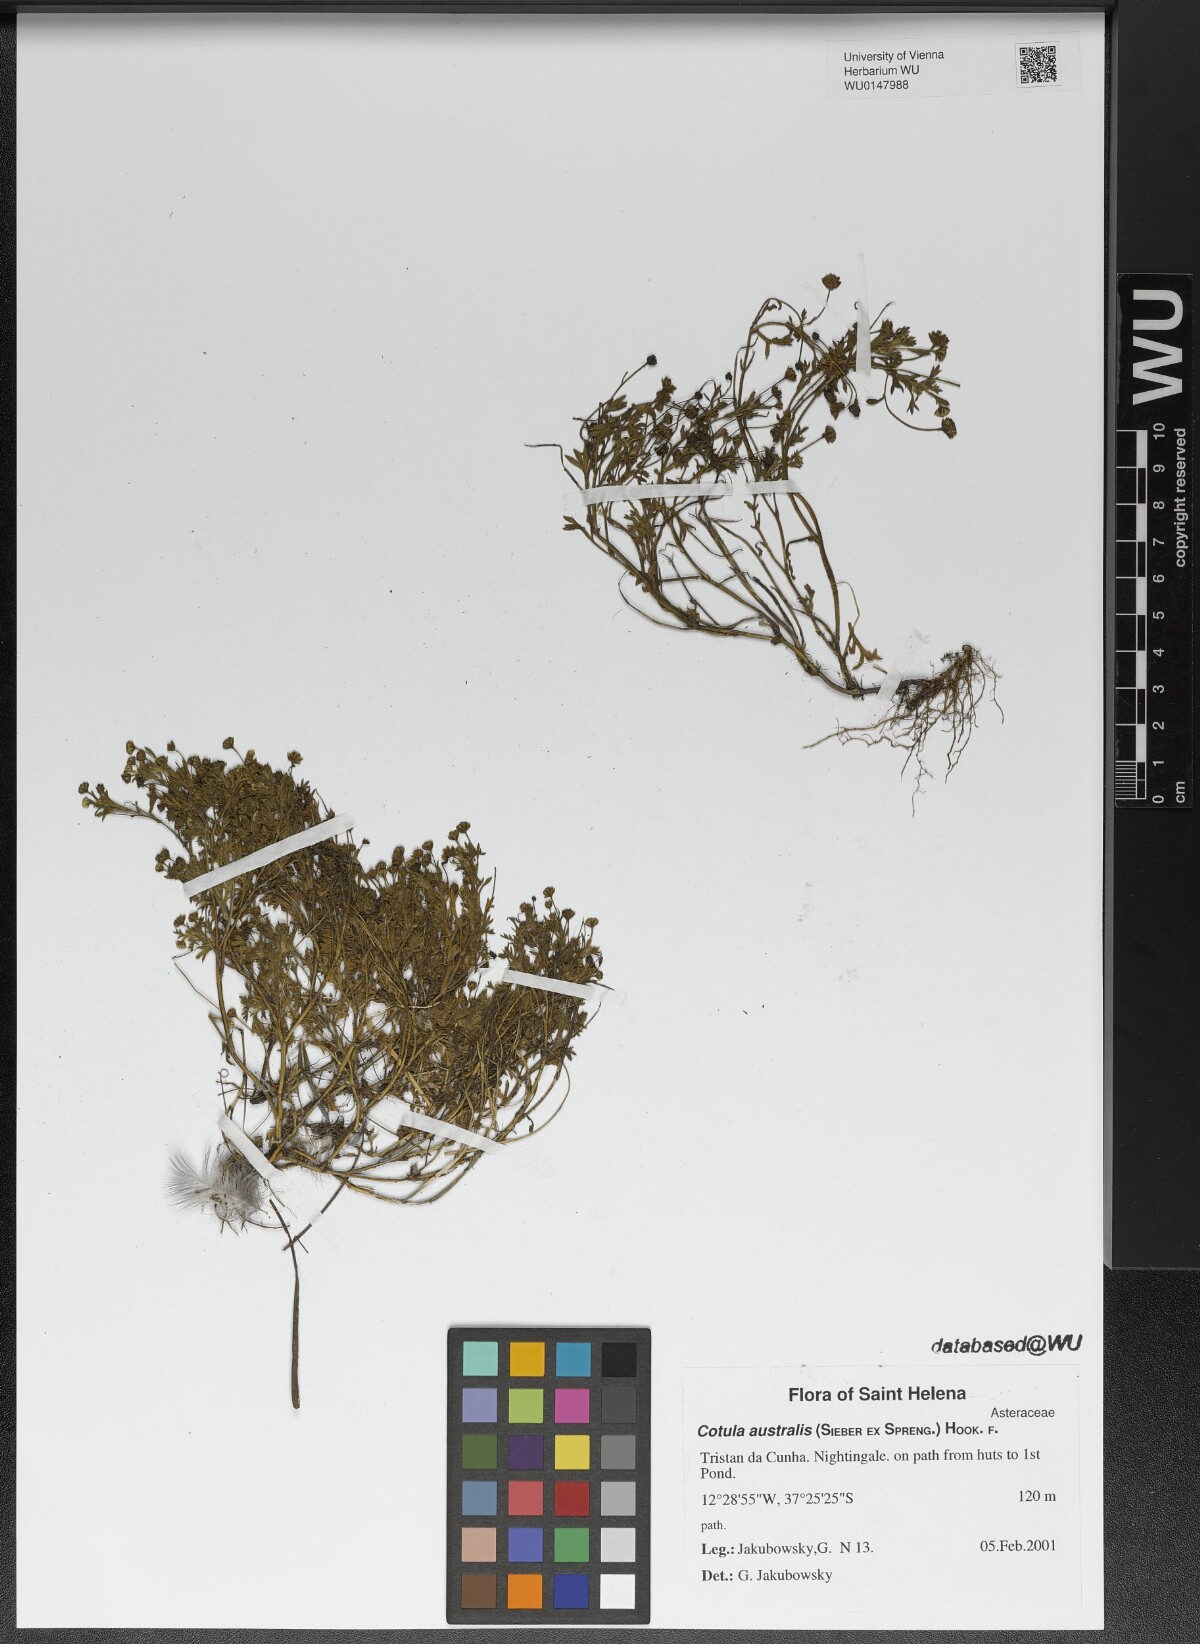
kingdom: Plantae
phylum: Tracheophyta
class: Magnoliopsida
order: Asterales
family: Asteraceae
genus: Cotula
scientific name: Cotula australis
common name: Australian waterbuttons
